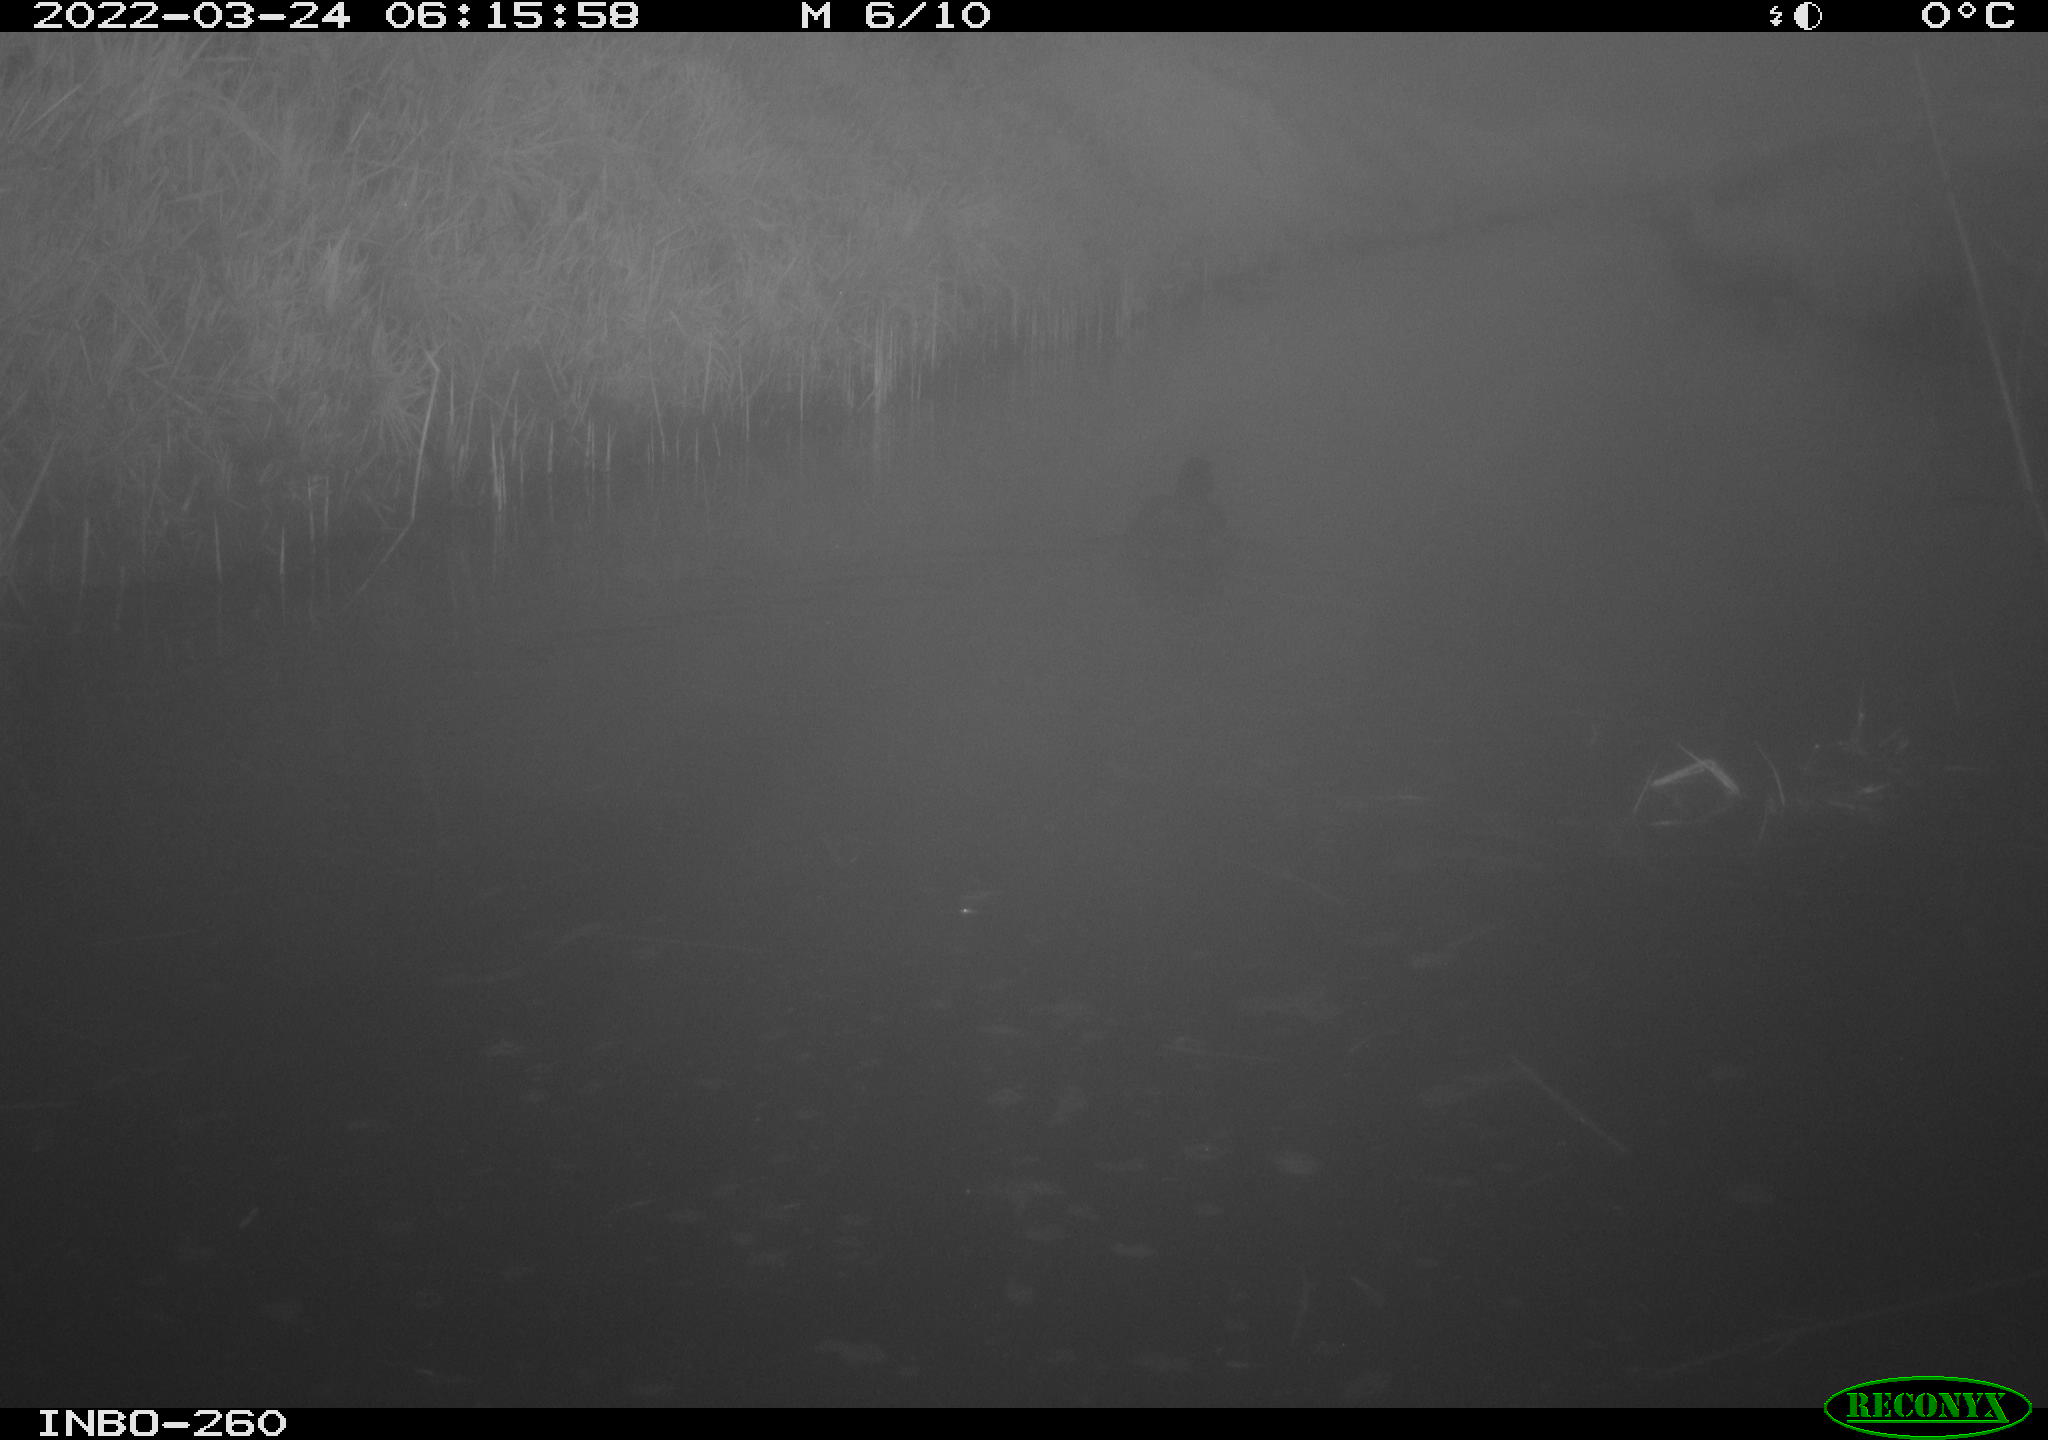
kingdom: Animalia
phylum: Chordata
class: Aves
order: Gruiformes
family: Rallidae
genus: Fulica
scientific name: Fulica atra
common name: Eurasian coot
